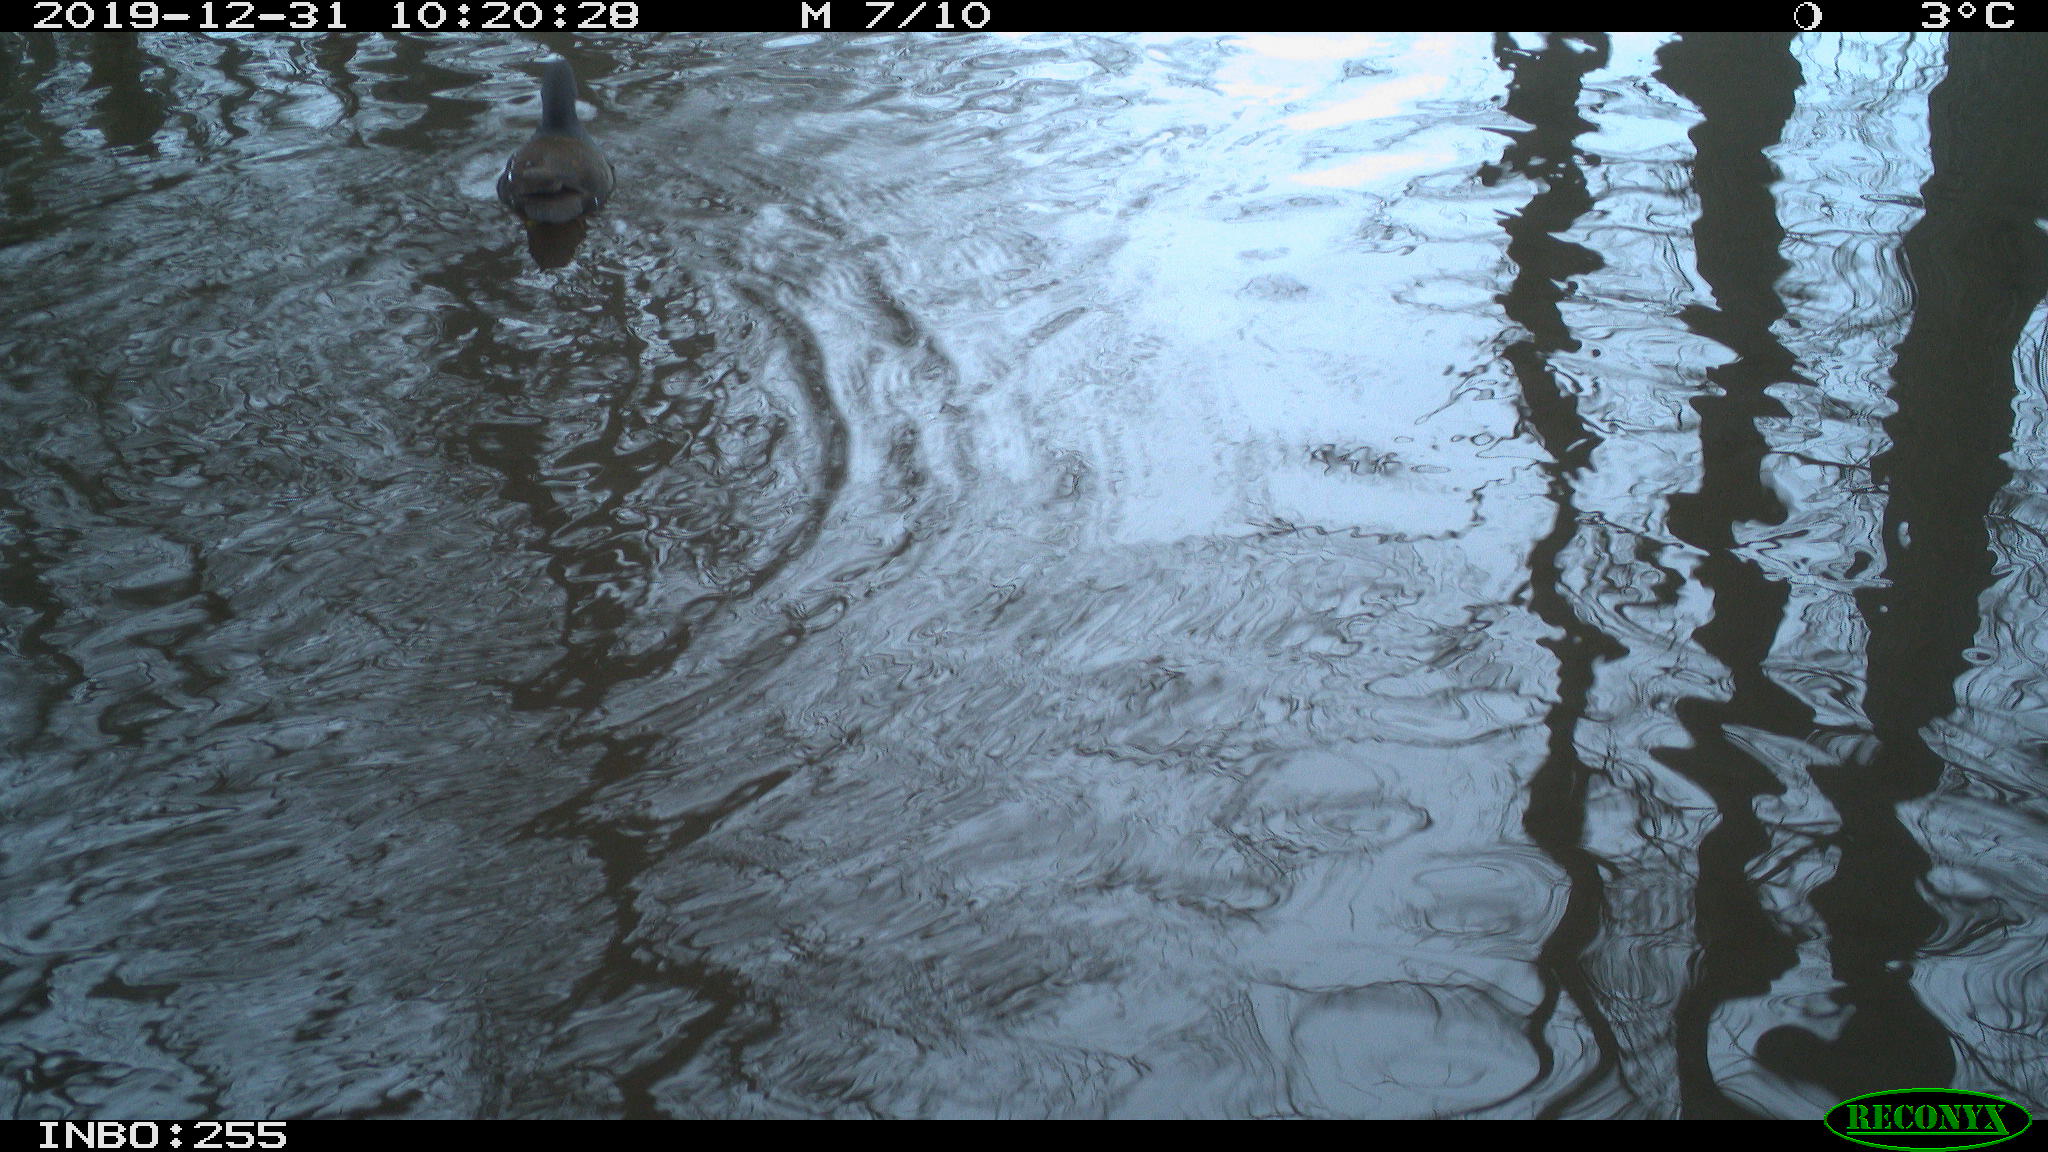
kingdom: Animalia
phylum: Chordata
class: Aves
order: Gruiformes
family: Rallidae
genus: Gallinula
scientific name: Gallinula chloropus
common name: Common moorhen
